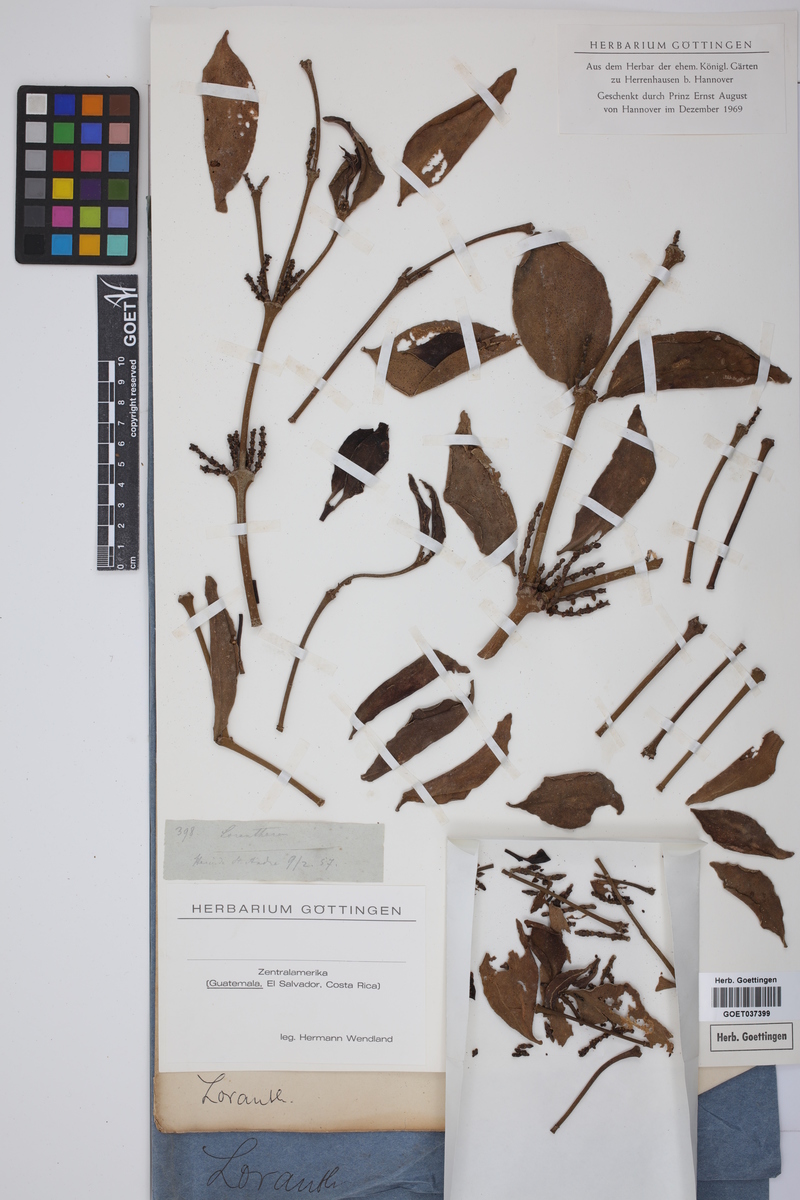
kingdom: Plantae
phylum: Tracheophyta
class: Magnoliopsida
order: Santalales
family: Loranthaceae
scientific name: Loranthaceae
